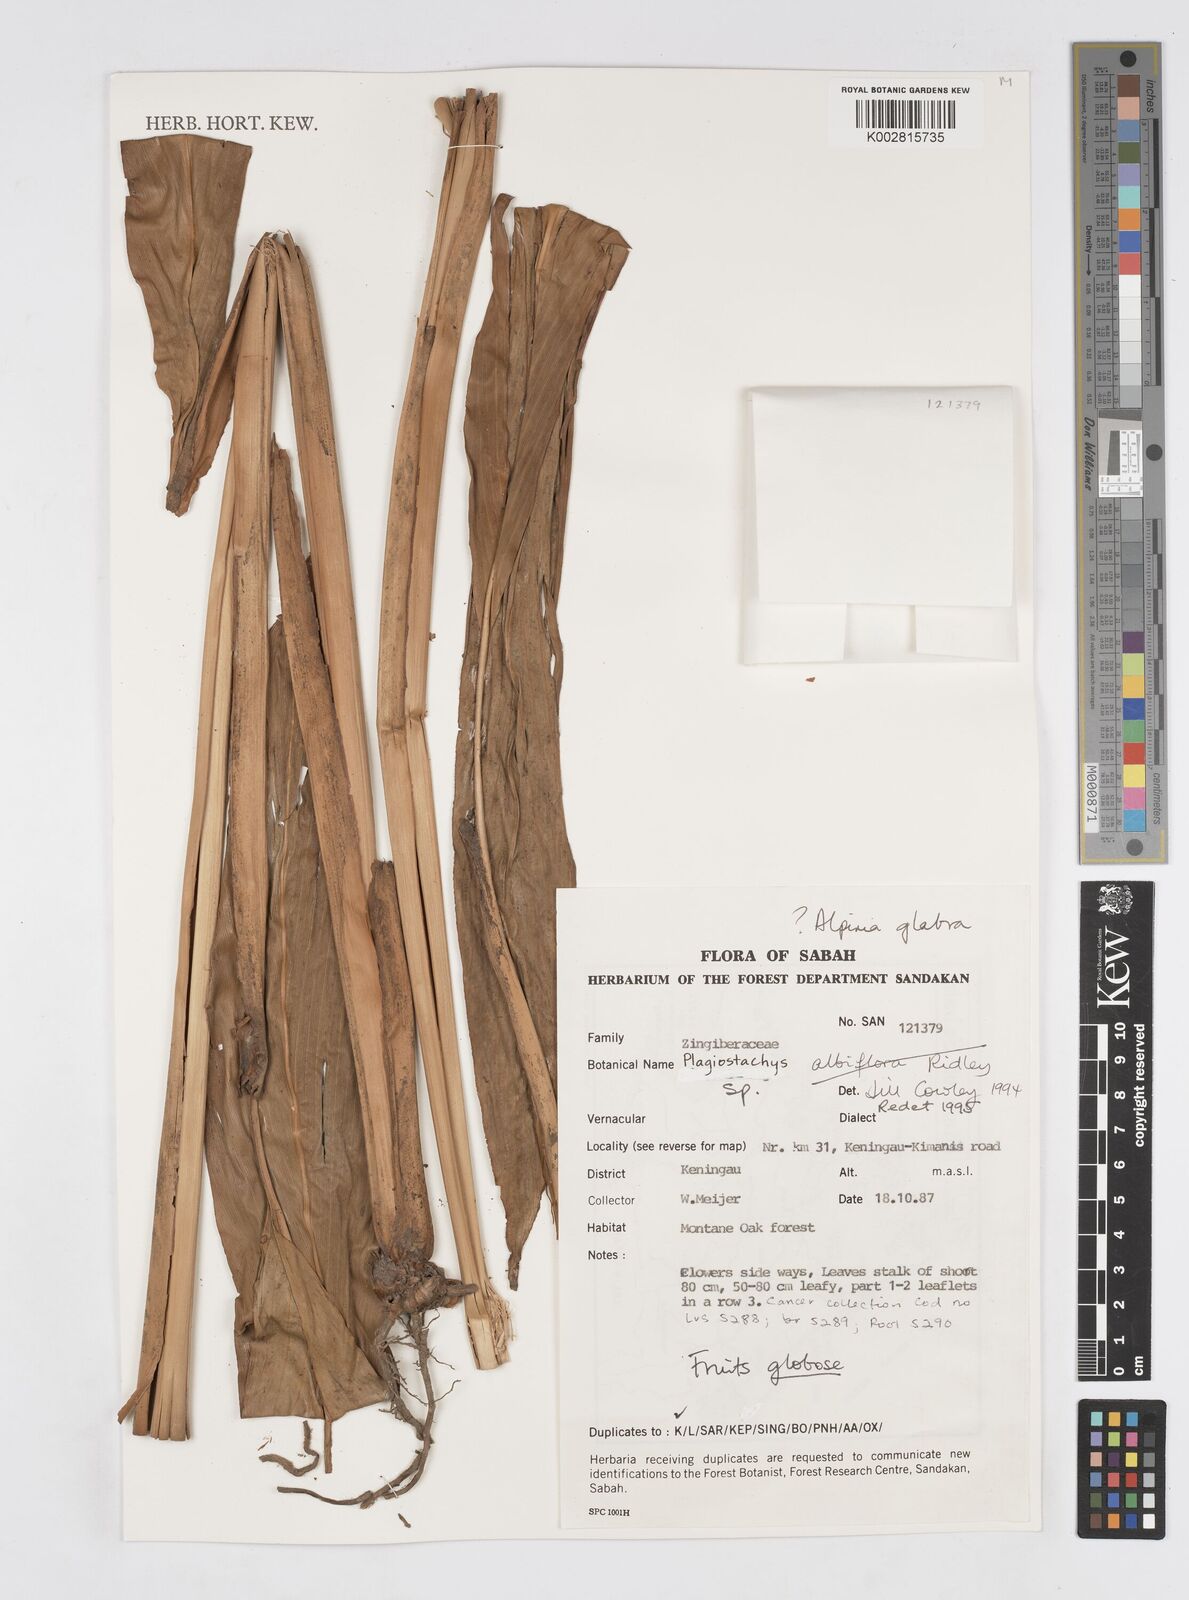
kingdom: Plantae
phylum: Tracheophyta
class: Liliopsida
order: Zingiberales
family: Zingiberaceae
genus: Alpinia
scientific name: Alpinia glabra
